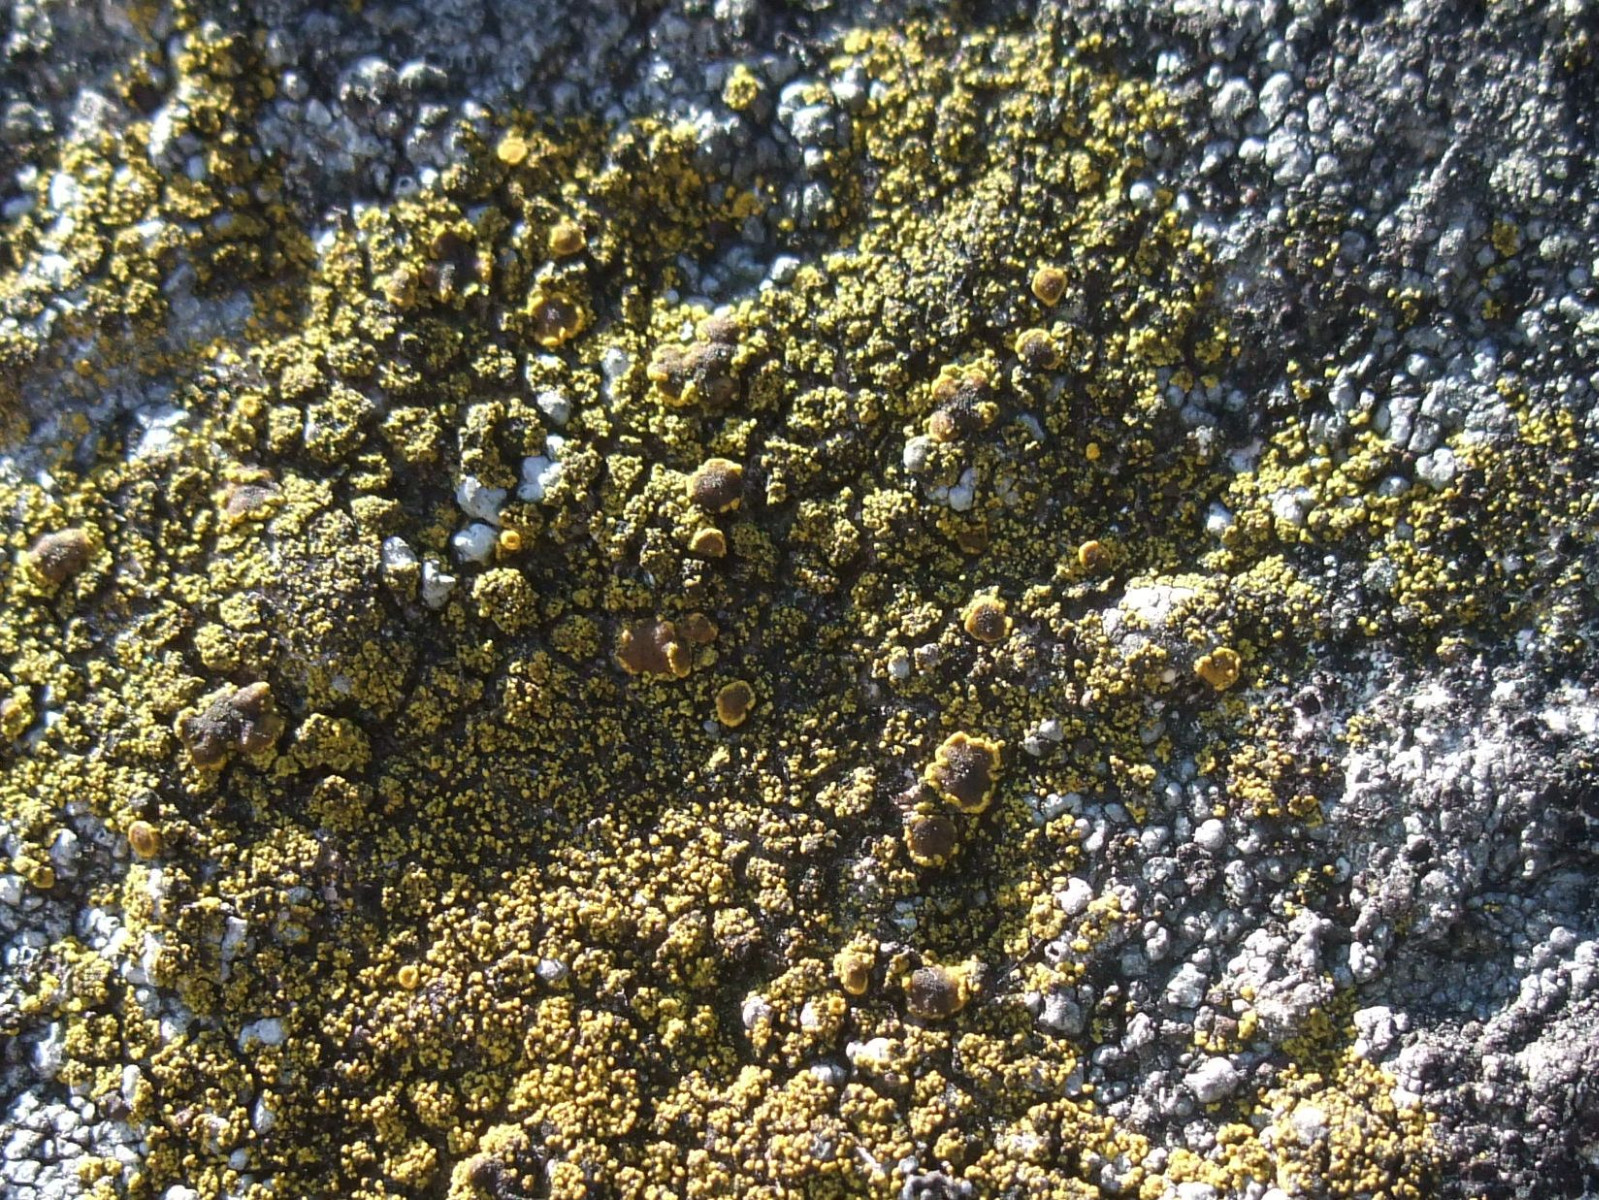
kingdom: Fungi
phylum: Ascomycota
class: Candelariomycetes
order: Candelariales
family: Candelariaceae
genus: Candelariella
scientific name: Candelariella vitellina
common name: almindelig æggeblommelav
